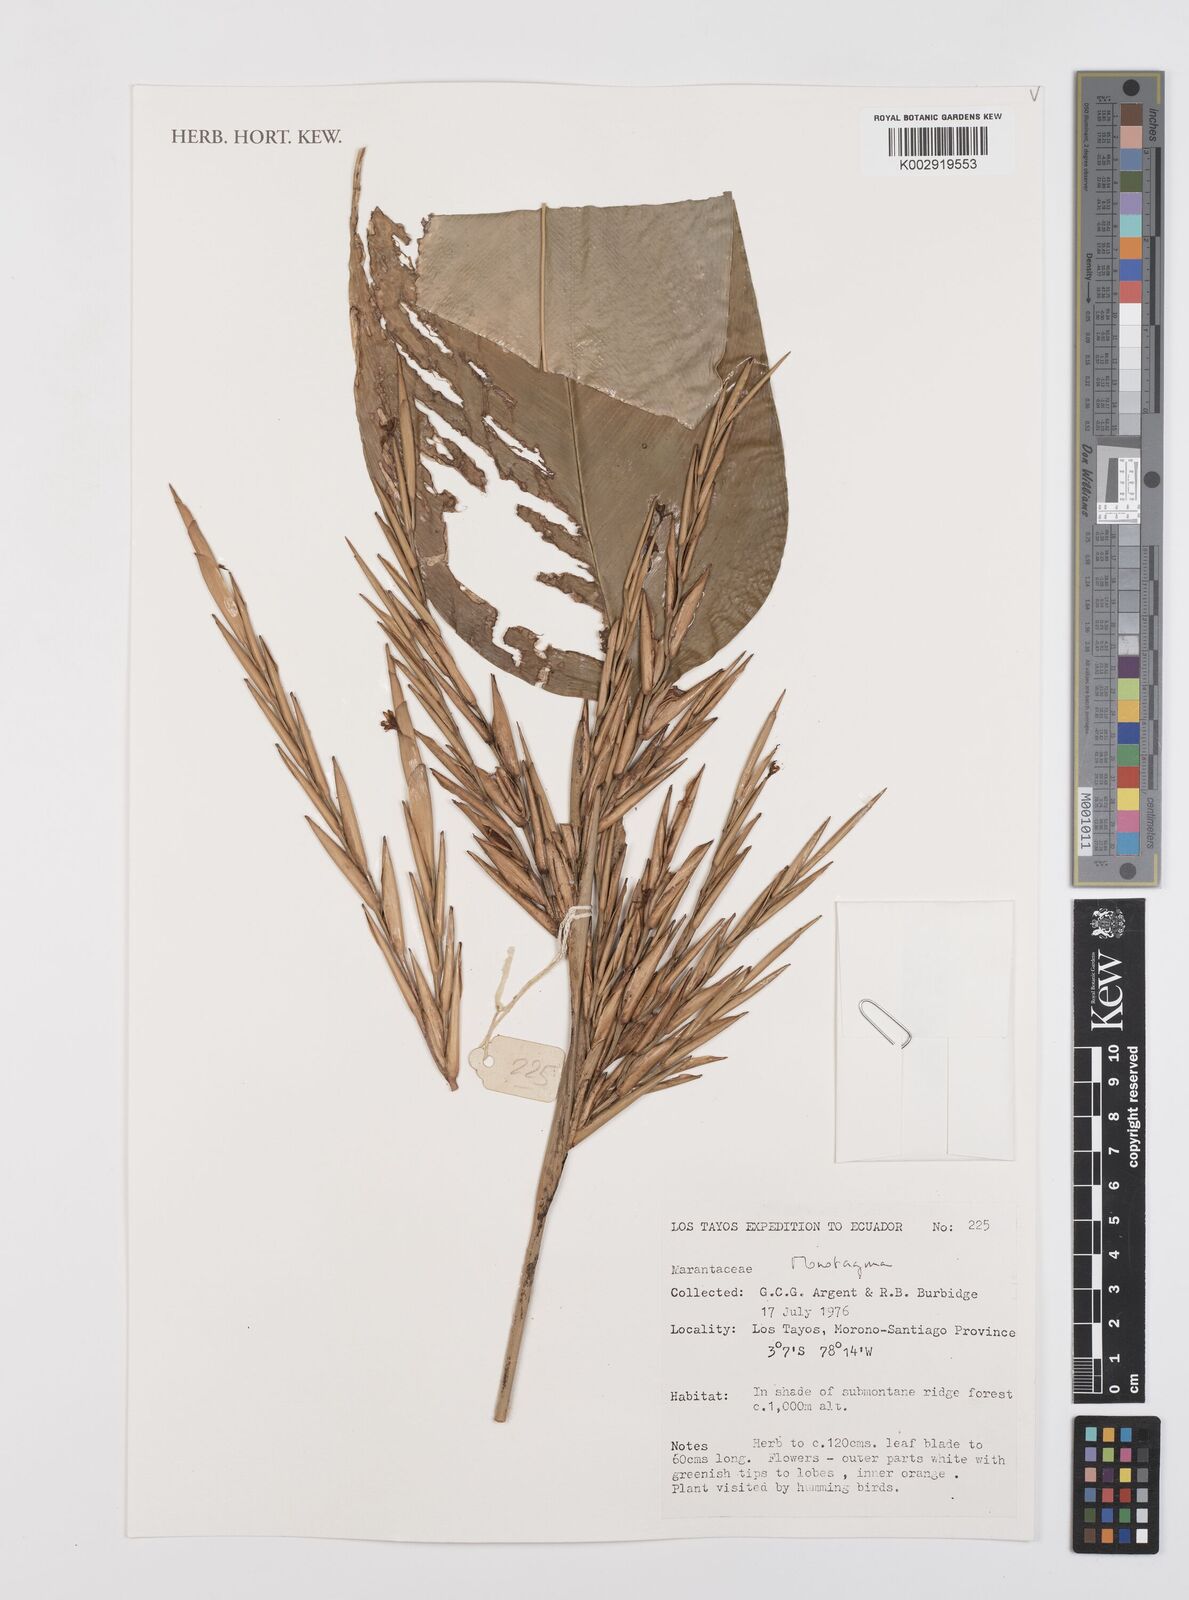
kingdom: Plantae
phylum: Tracheophyta
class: Liliopsida
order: Zingiberales
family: Marantaceae
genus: Monotagma
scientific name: Monotagma
